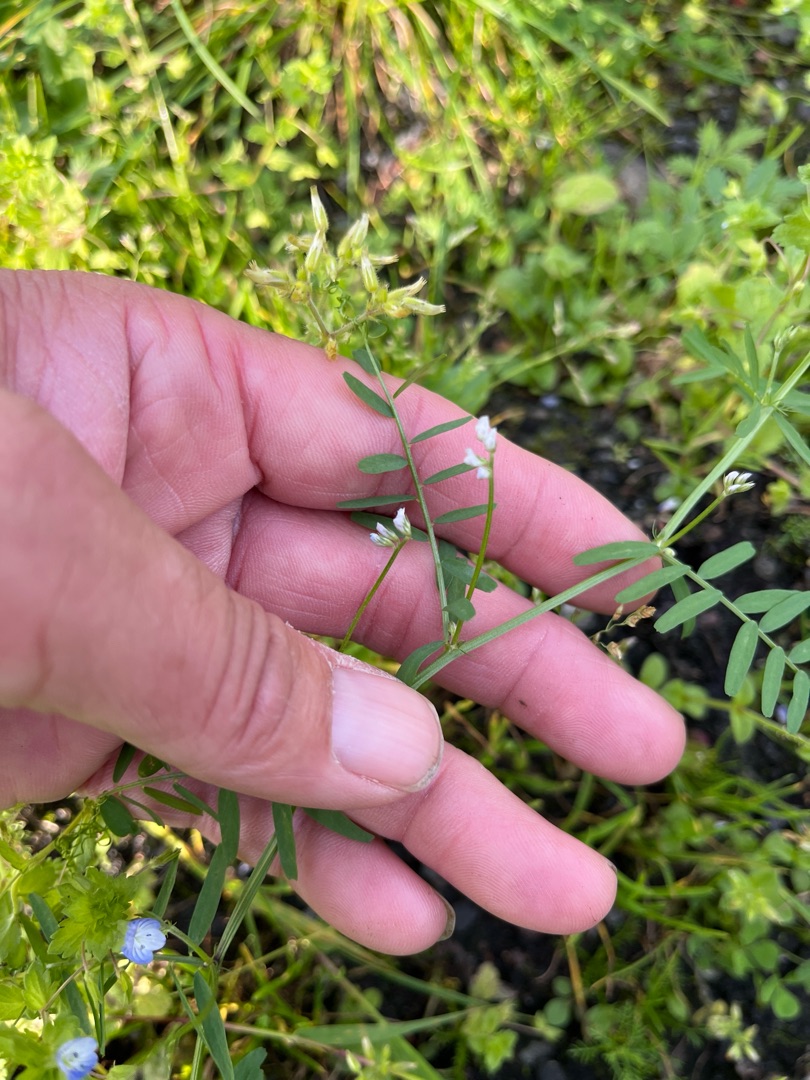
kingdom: Plantae
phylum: Tracheophyta
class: Magnoliopsida
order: Fabales
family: Fabaceae
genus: Vicia
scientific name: Vicia hirsuta
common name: Tofrøet vikke
